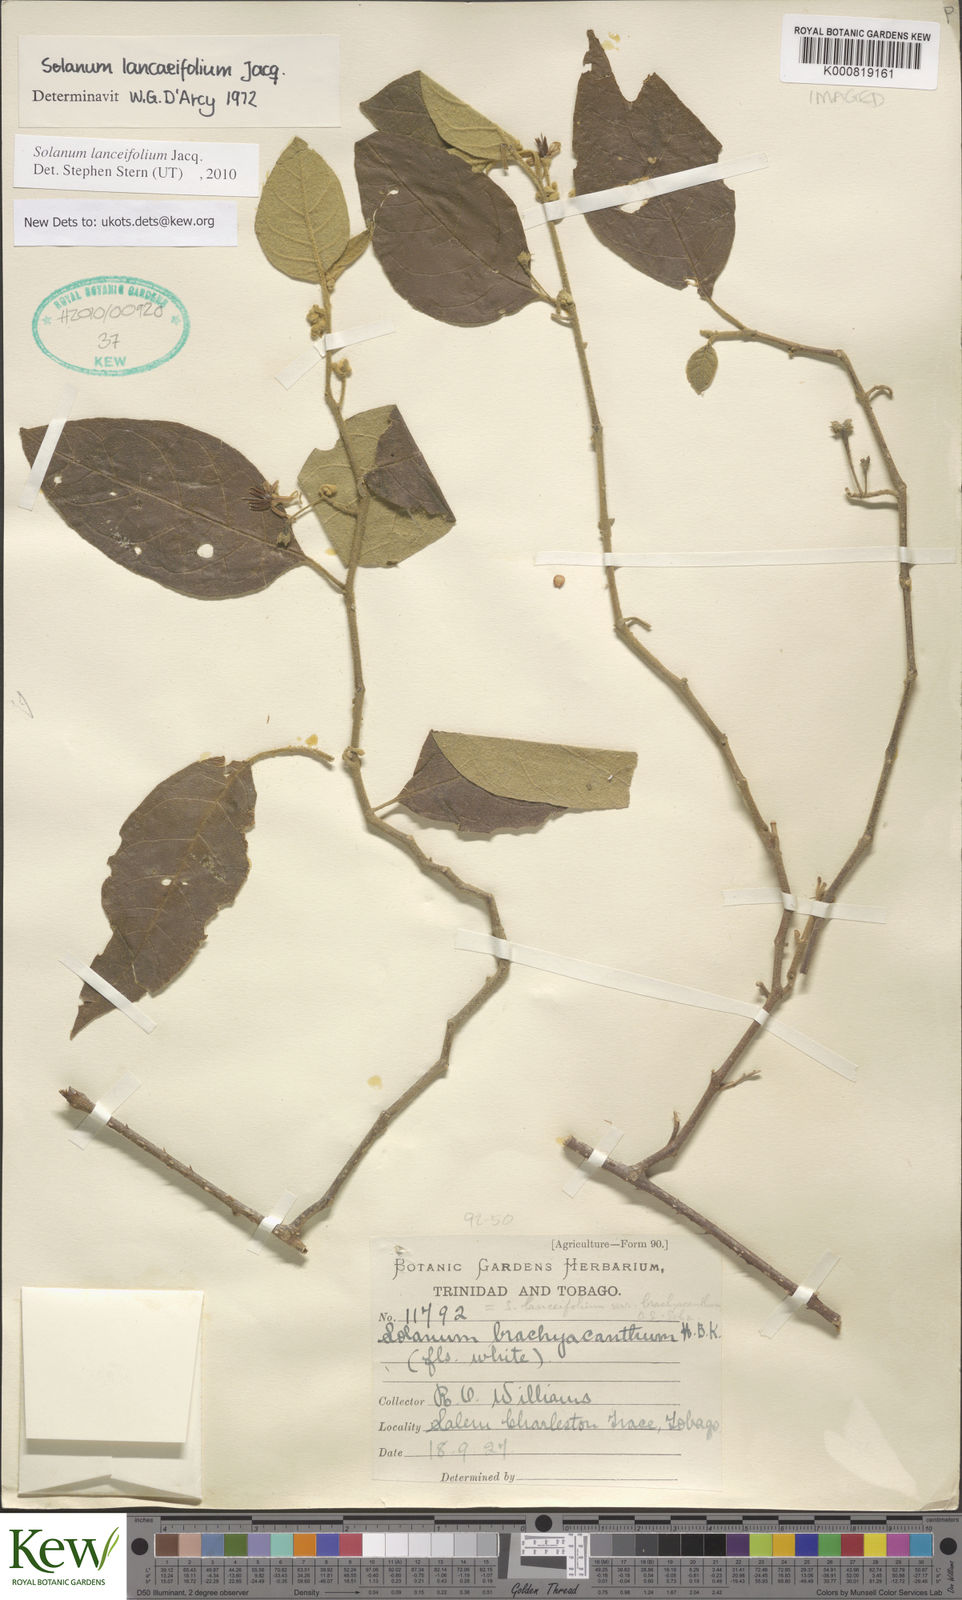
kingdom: Plantae
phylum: Tracheophyta
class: Magnoliopsida
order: Solanales
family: Solanaceae
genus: Solanum
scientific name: Solanum lanceifolium
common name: Lanceleaf nightshade
